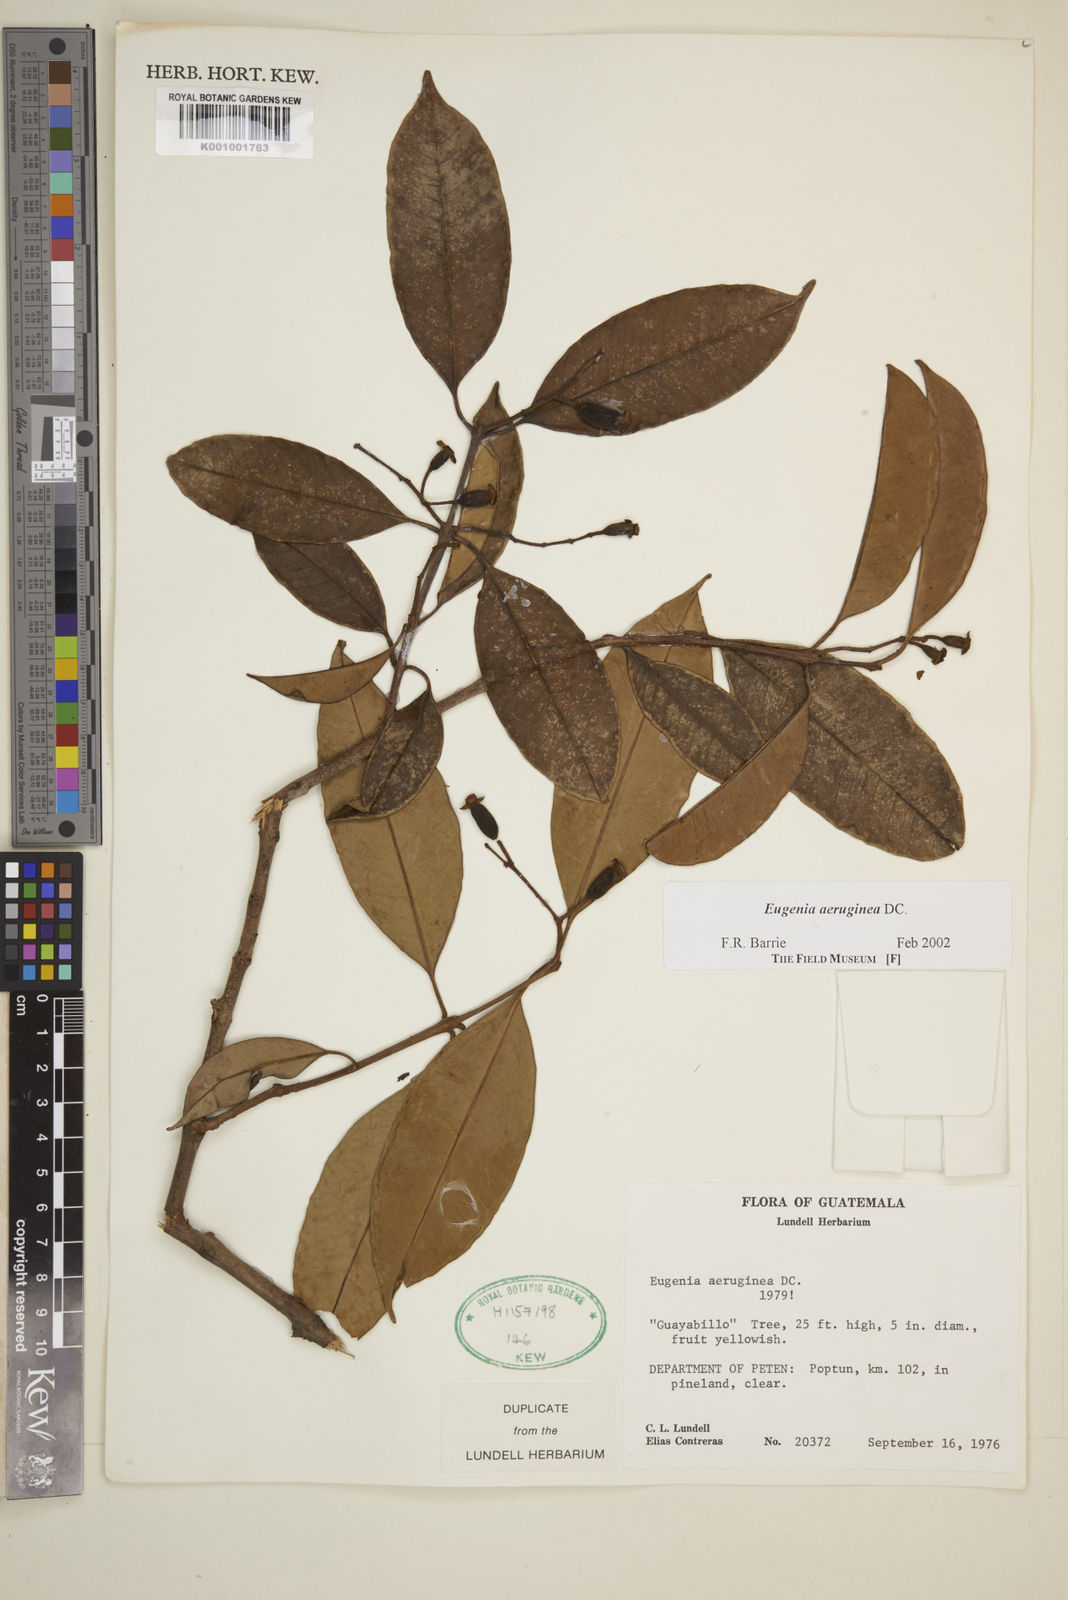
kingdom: Plantae
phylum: Tracheophyta
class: Magnoliopsida
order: Myrtales
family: Myrtaceae
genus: Eugenia
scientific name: Eugenia aeruginea
